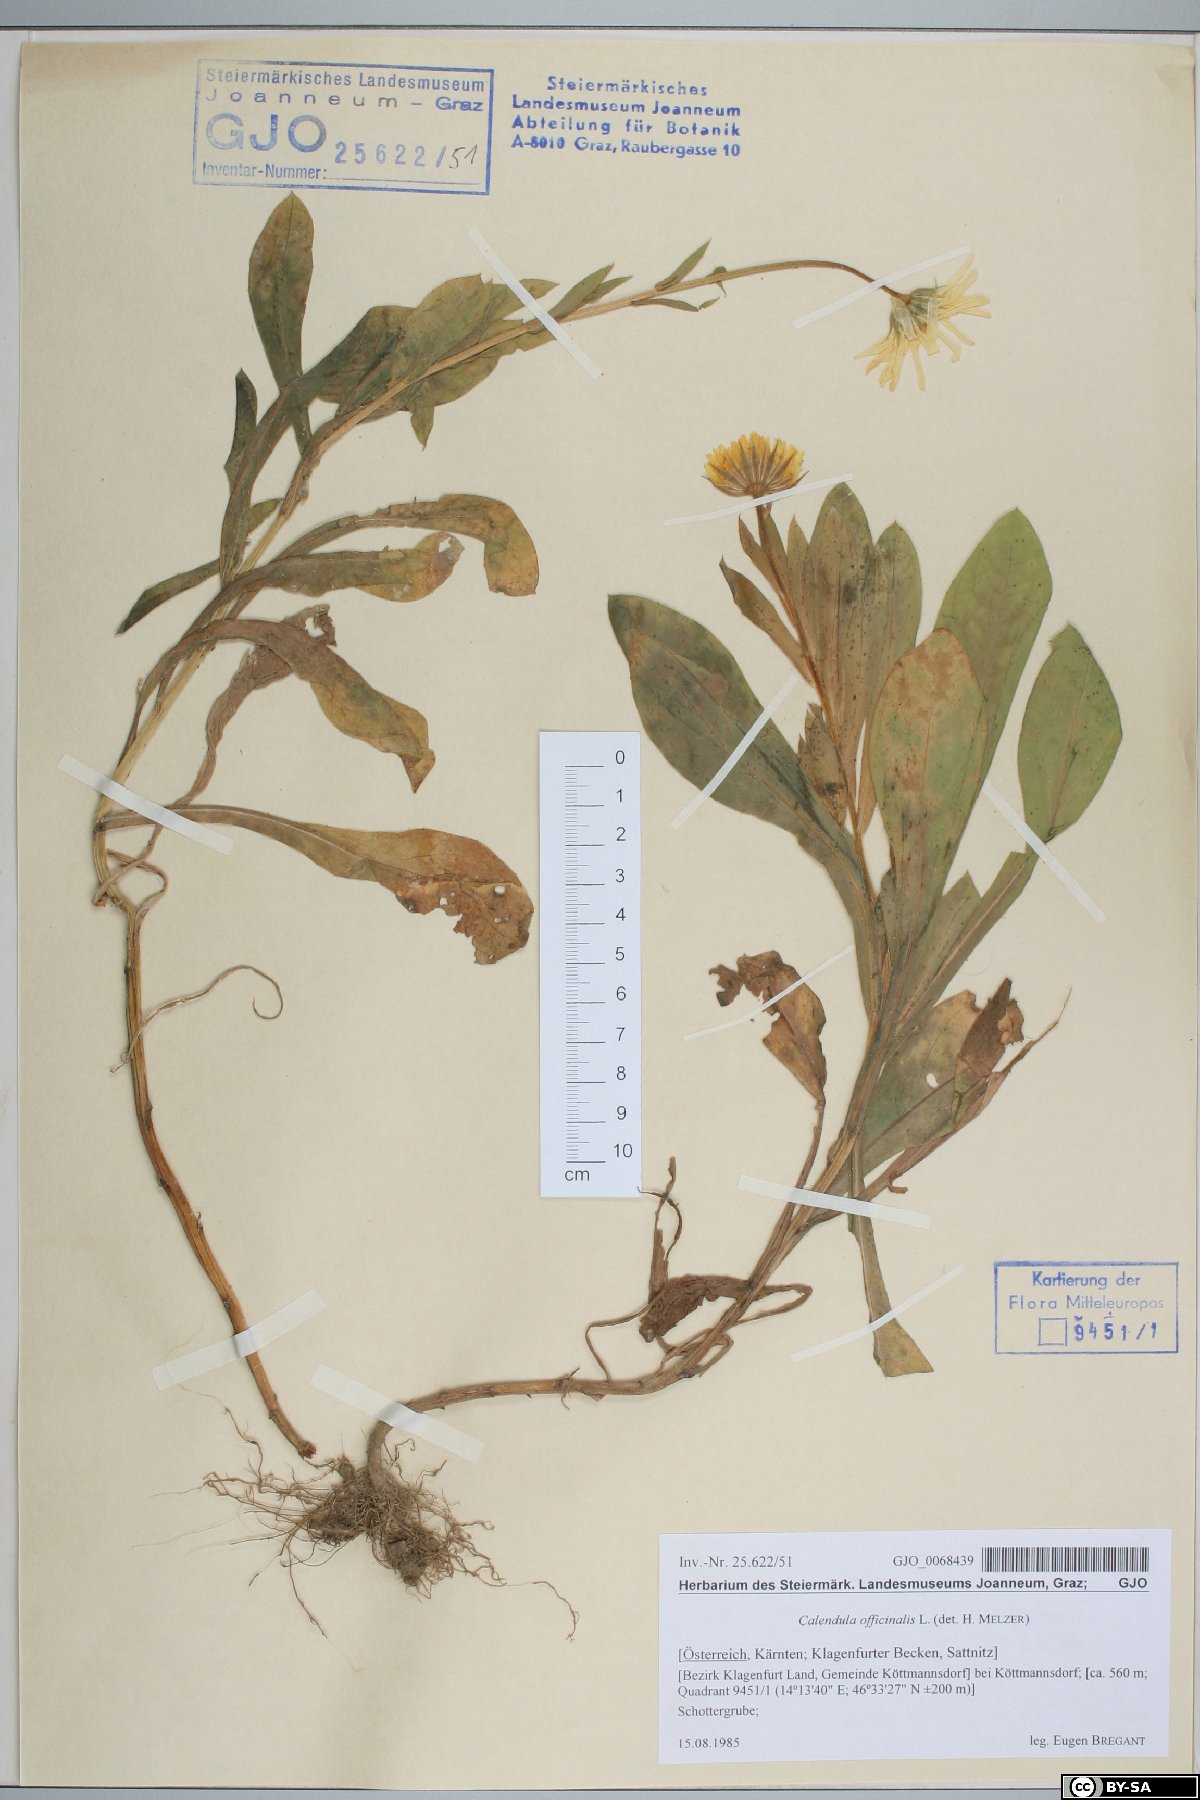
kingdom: Plantae
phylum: Tracheophyta
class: Magnoliopsida
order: Asterales
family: Asteraceae
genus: Calendula
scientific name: Calendula officinalis
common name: Pot marigold
